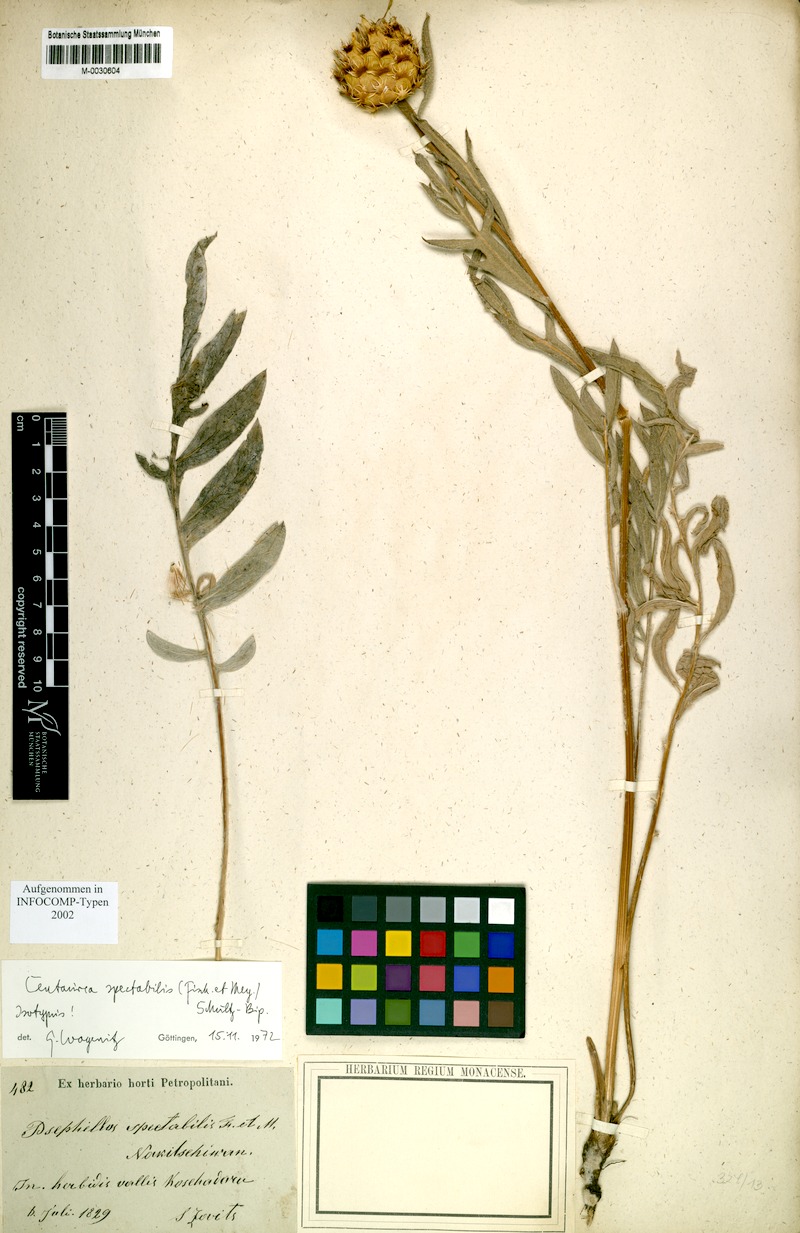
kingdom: Plantae
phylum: Tracheophyta
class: Magnoliopsida
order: Asterales
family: Asteraceae
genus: Centaurea
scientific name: Centaurea spectabilis
